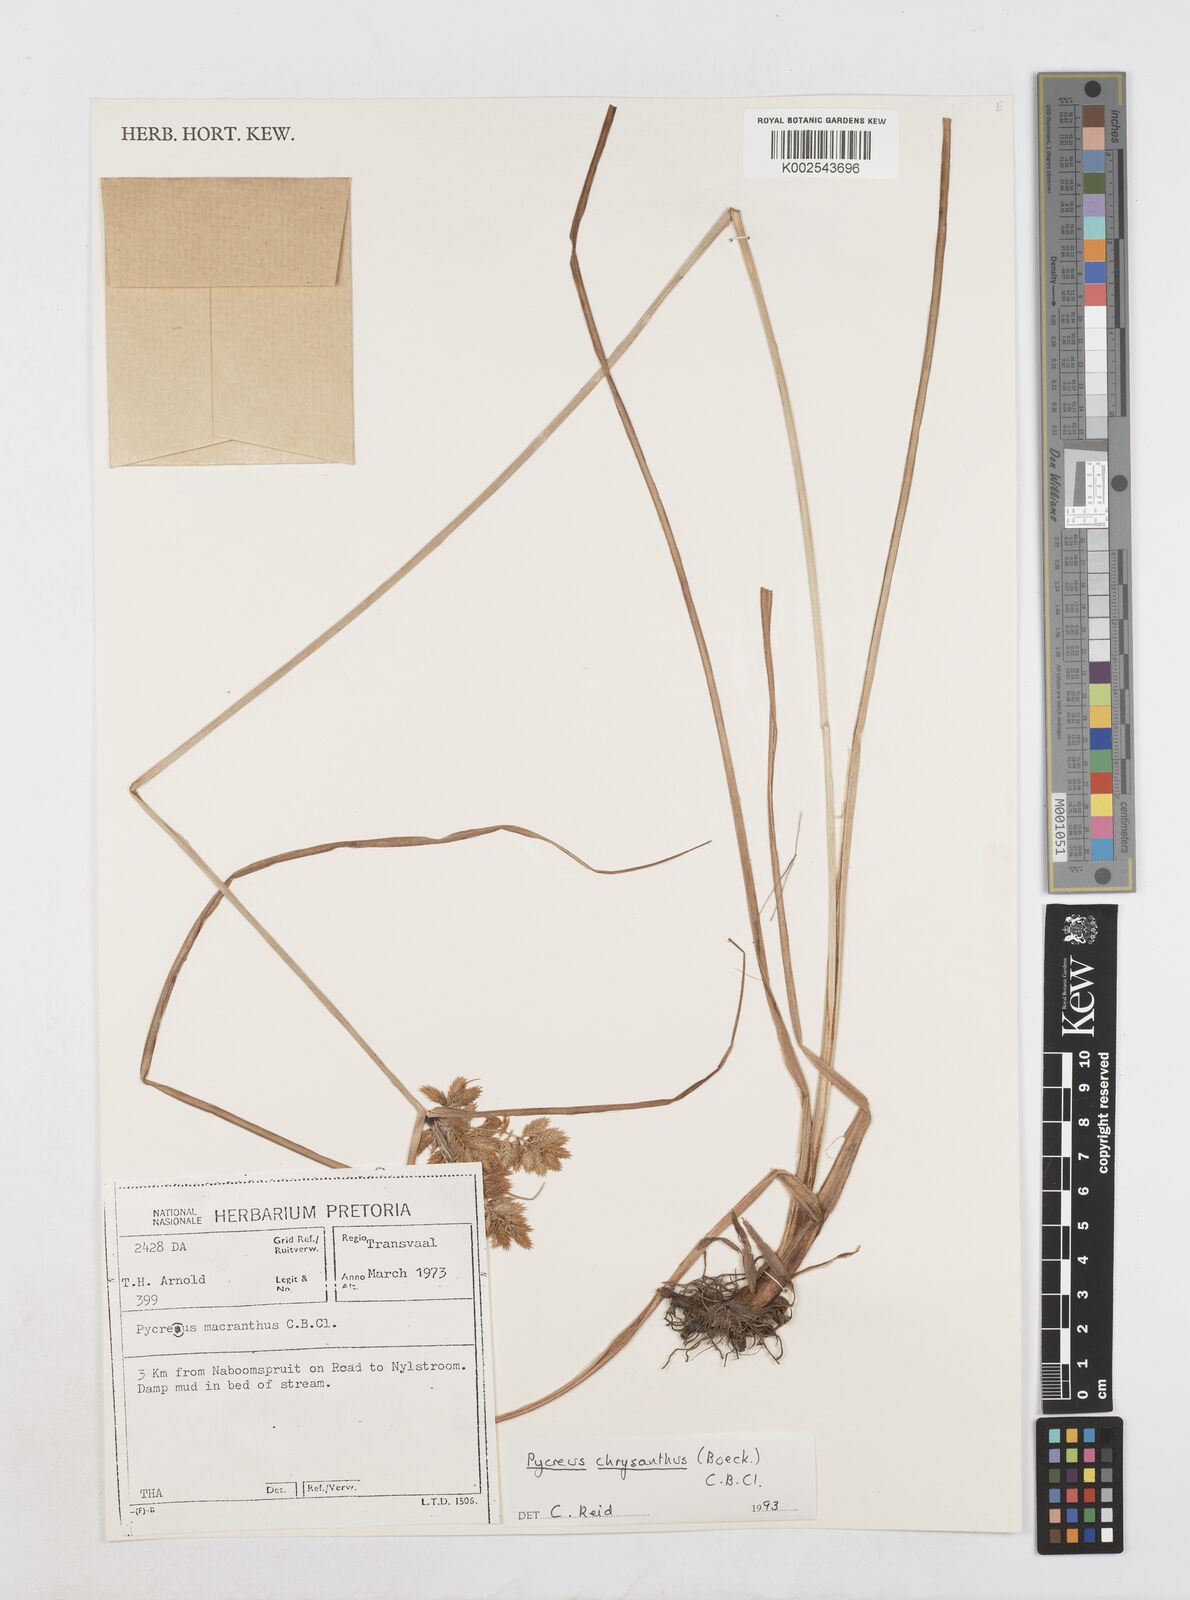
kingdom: Plantae
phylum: Tracheophyta
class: Liliopsida
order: Poales
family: Cyperaceae
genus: Cyperus
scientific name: Cyperus chrysanthus
